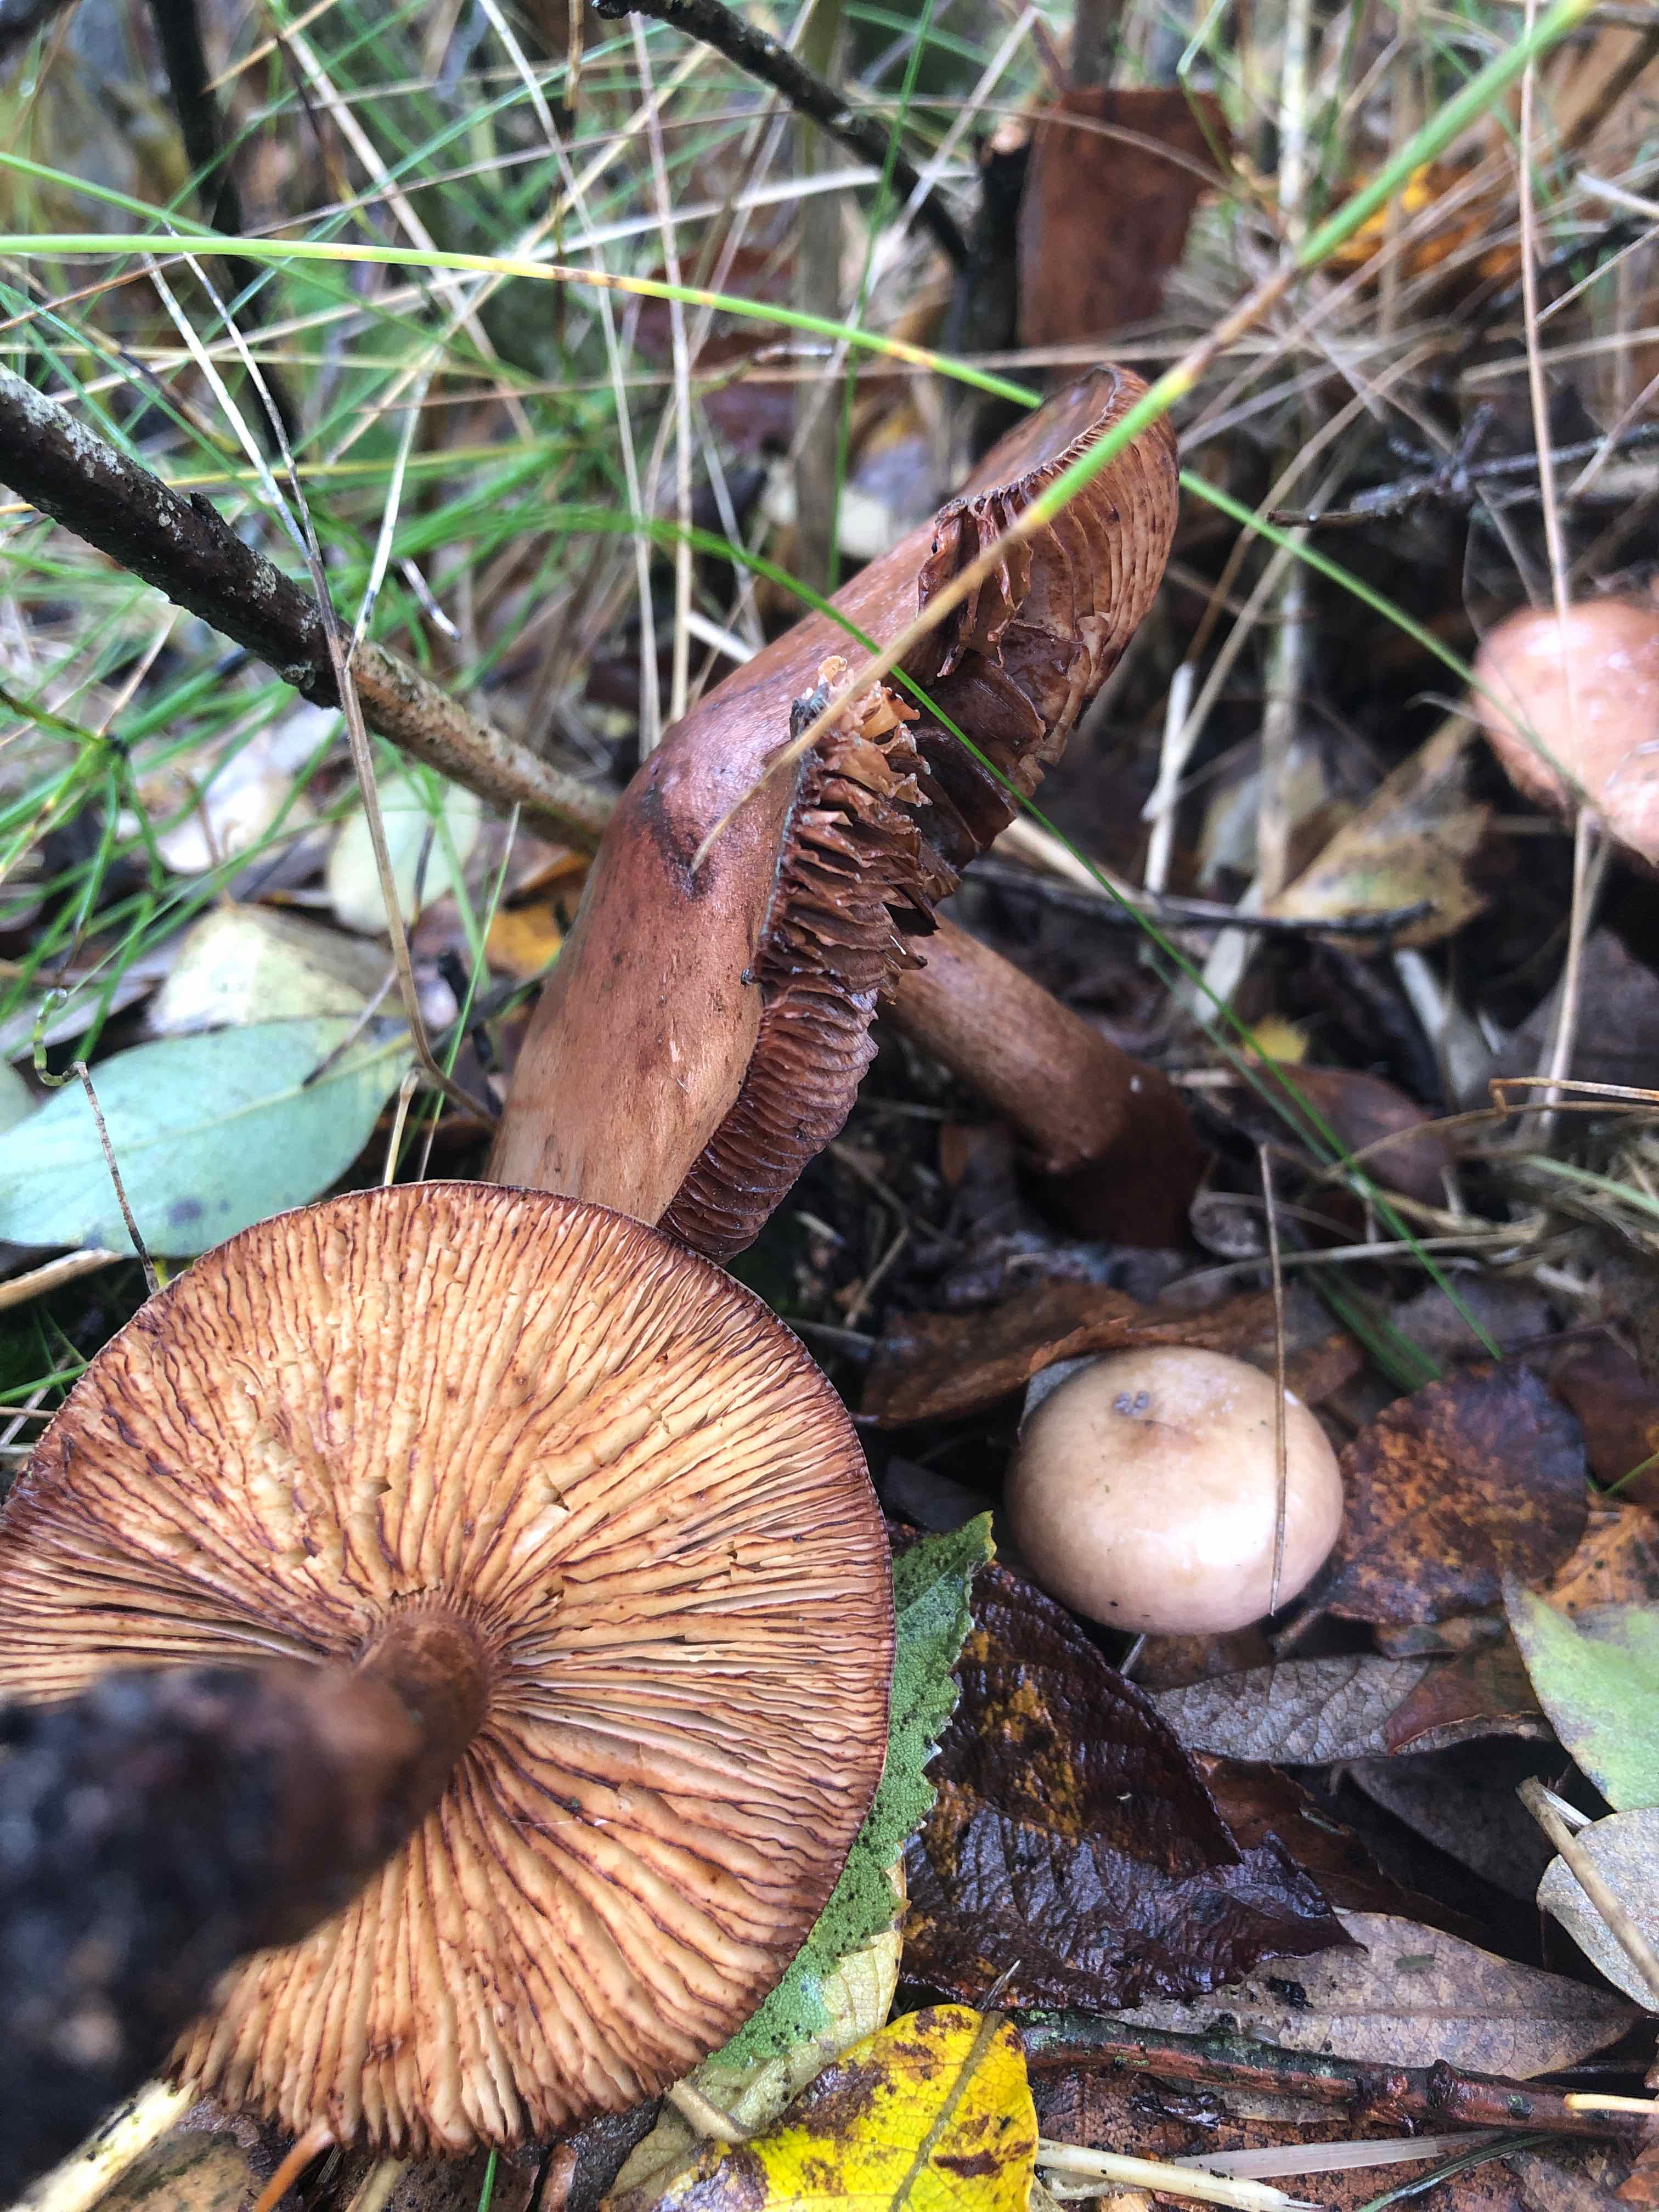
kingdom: Fungi
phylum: Basidiomycota
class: Agaricomycetes
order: Agaricales
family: Tricholomataceae
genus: Tricholoma
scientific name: Tricholoma fulvum
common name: birke-ridderhat
